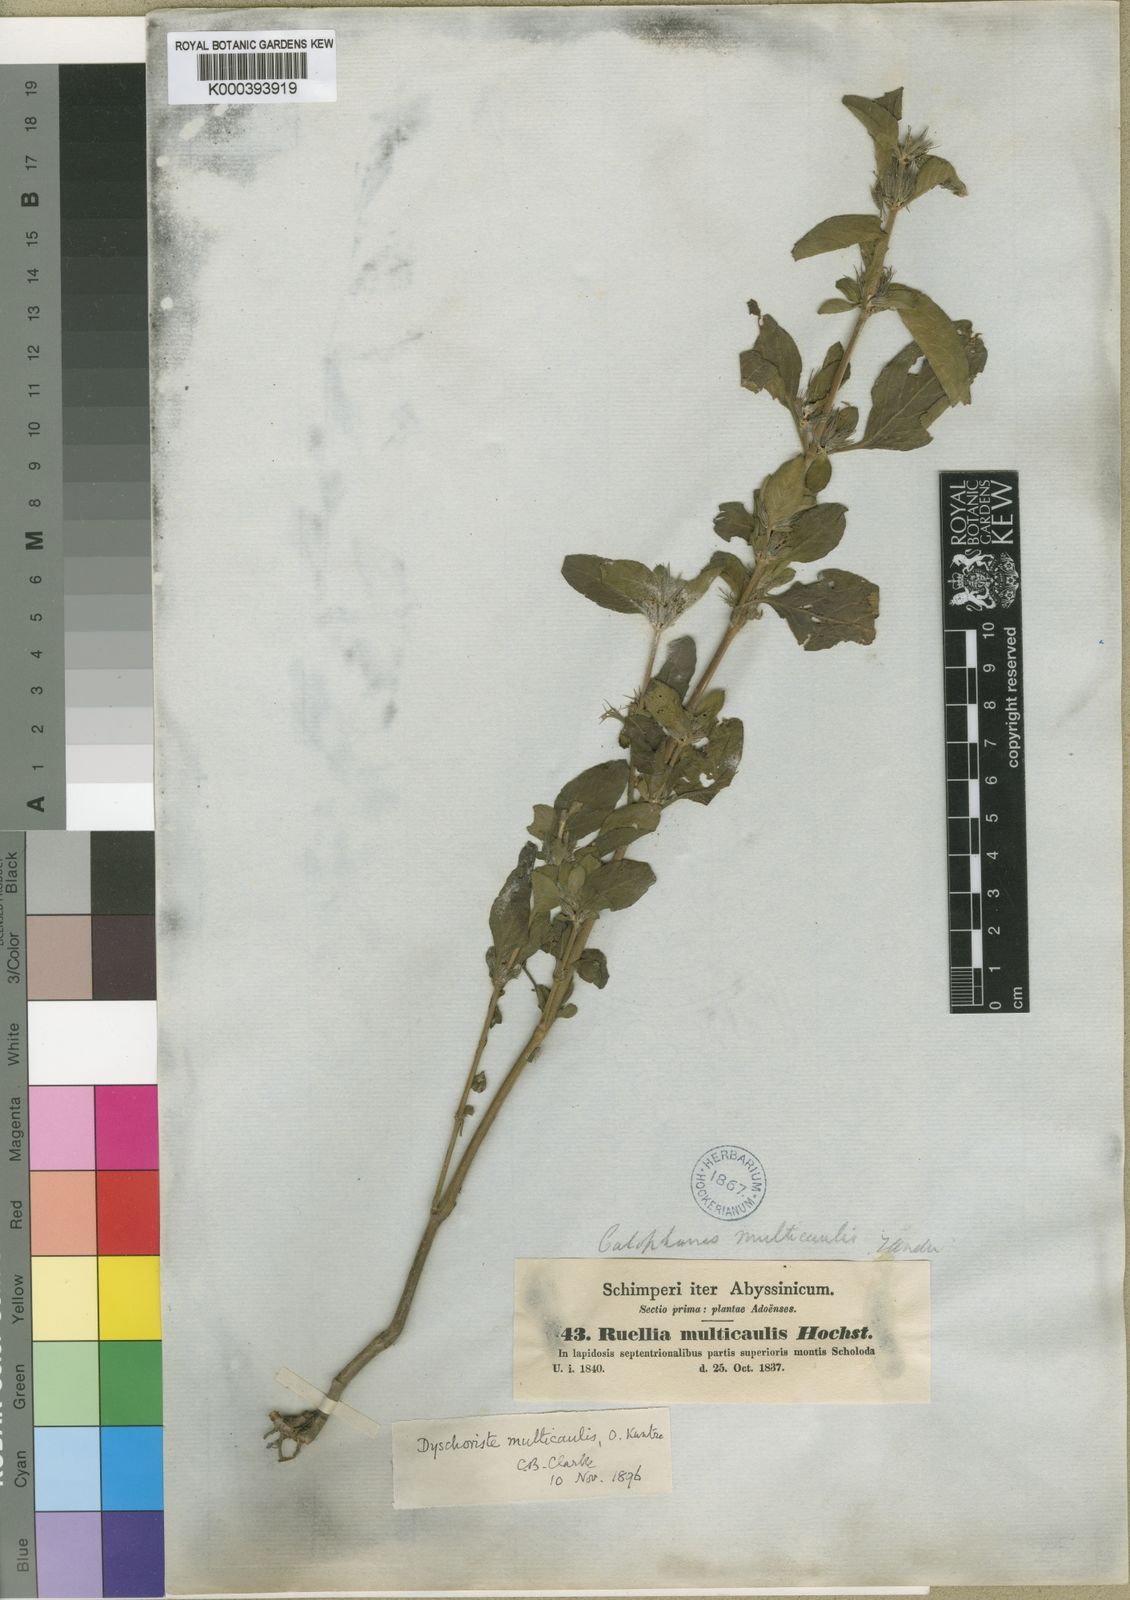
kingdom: Plantae
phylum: Tracheophyta
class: Magnoliopsida
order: Lamiales
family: Acanthaceae
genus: Dyschoriste
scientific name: Dyschoriste multicaulis
